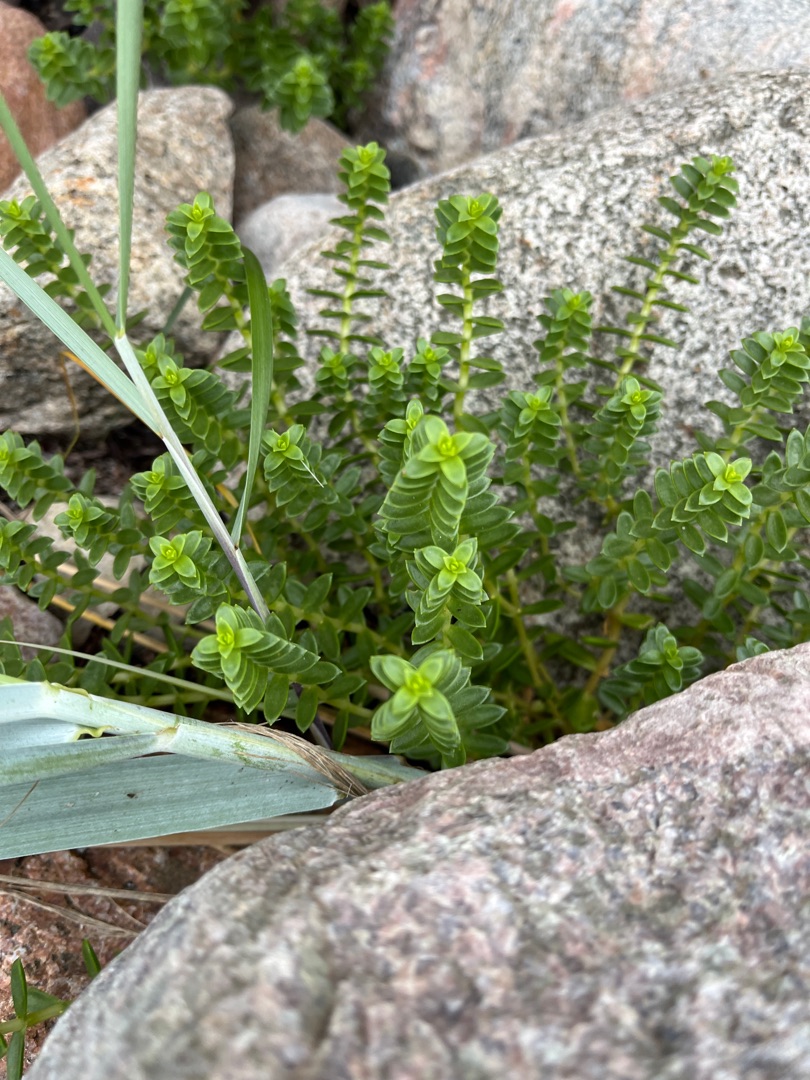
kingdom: Plantae
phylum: Tracheophyta
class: Magnoliopsida
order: Caryophyllales
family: Caryophyllaceae
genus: Honckenya
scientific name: Honckenya peploides
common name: Strandarve
